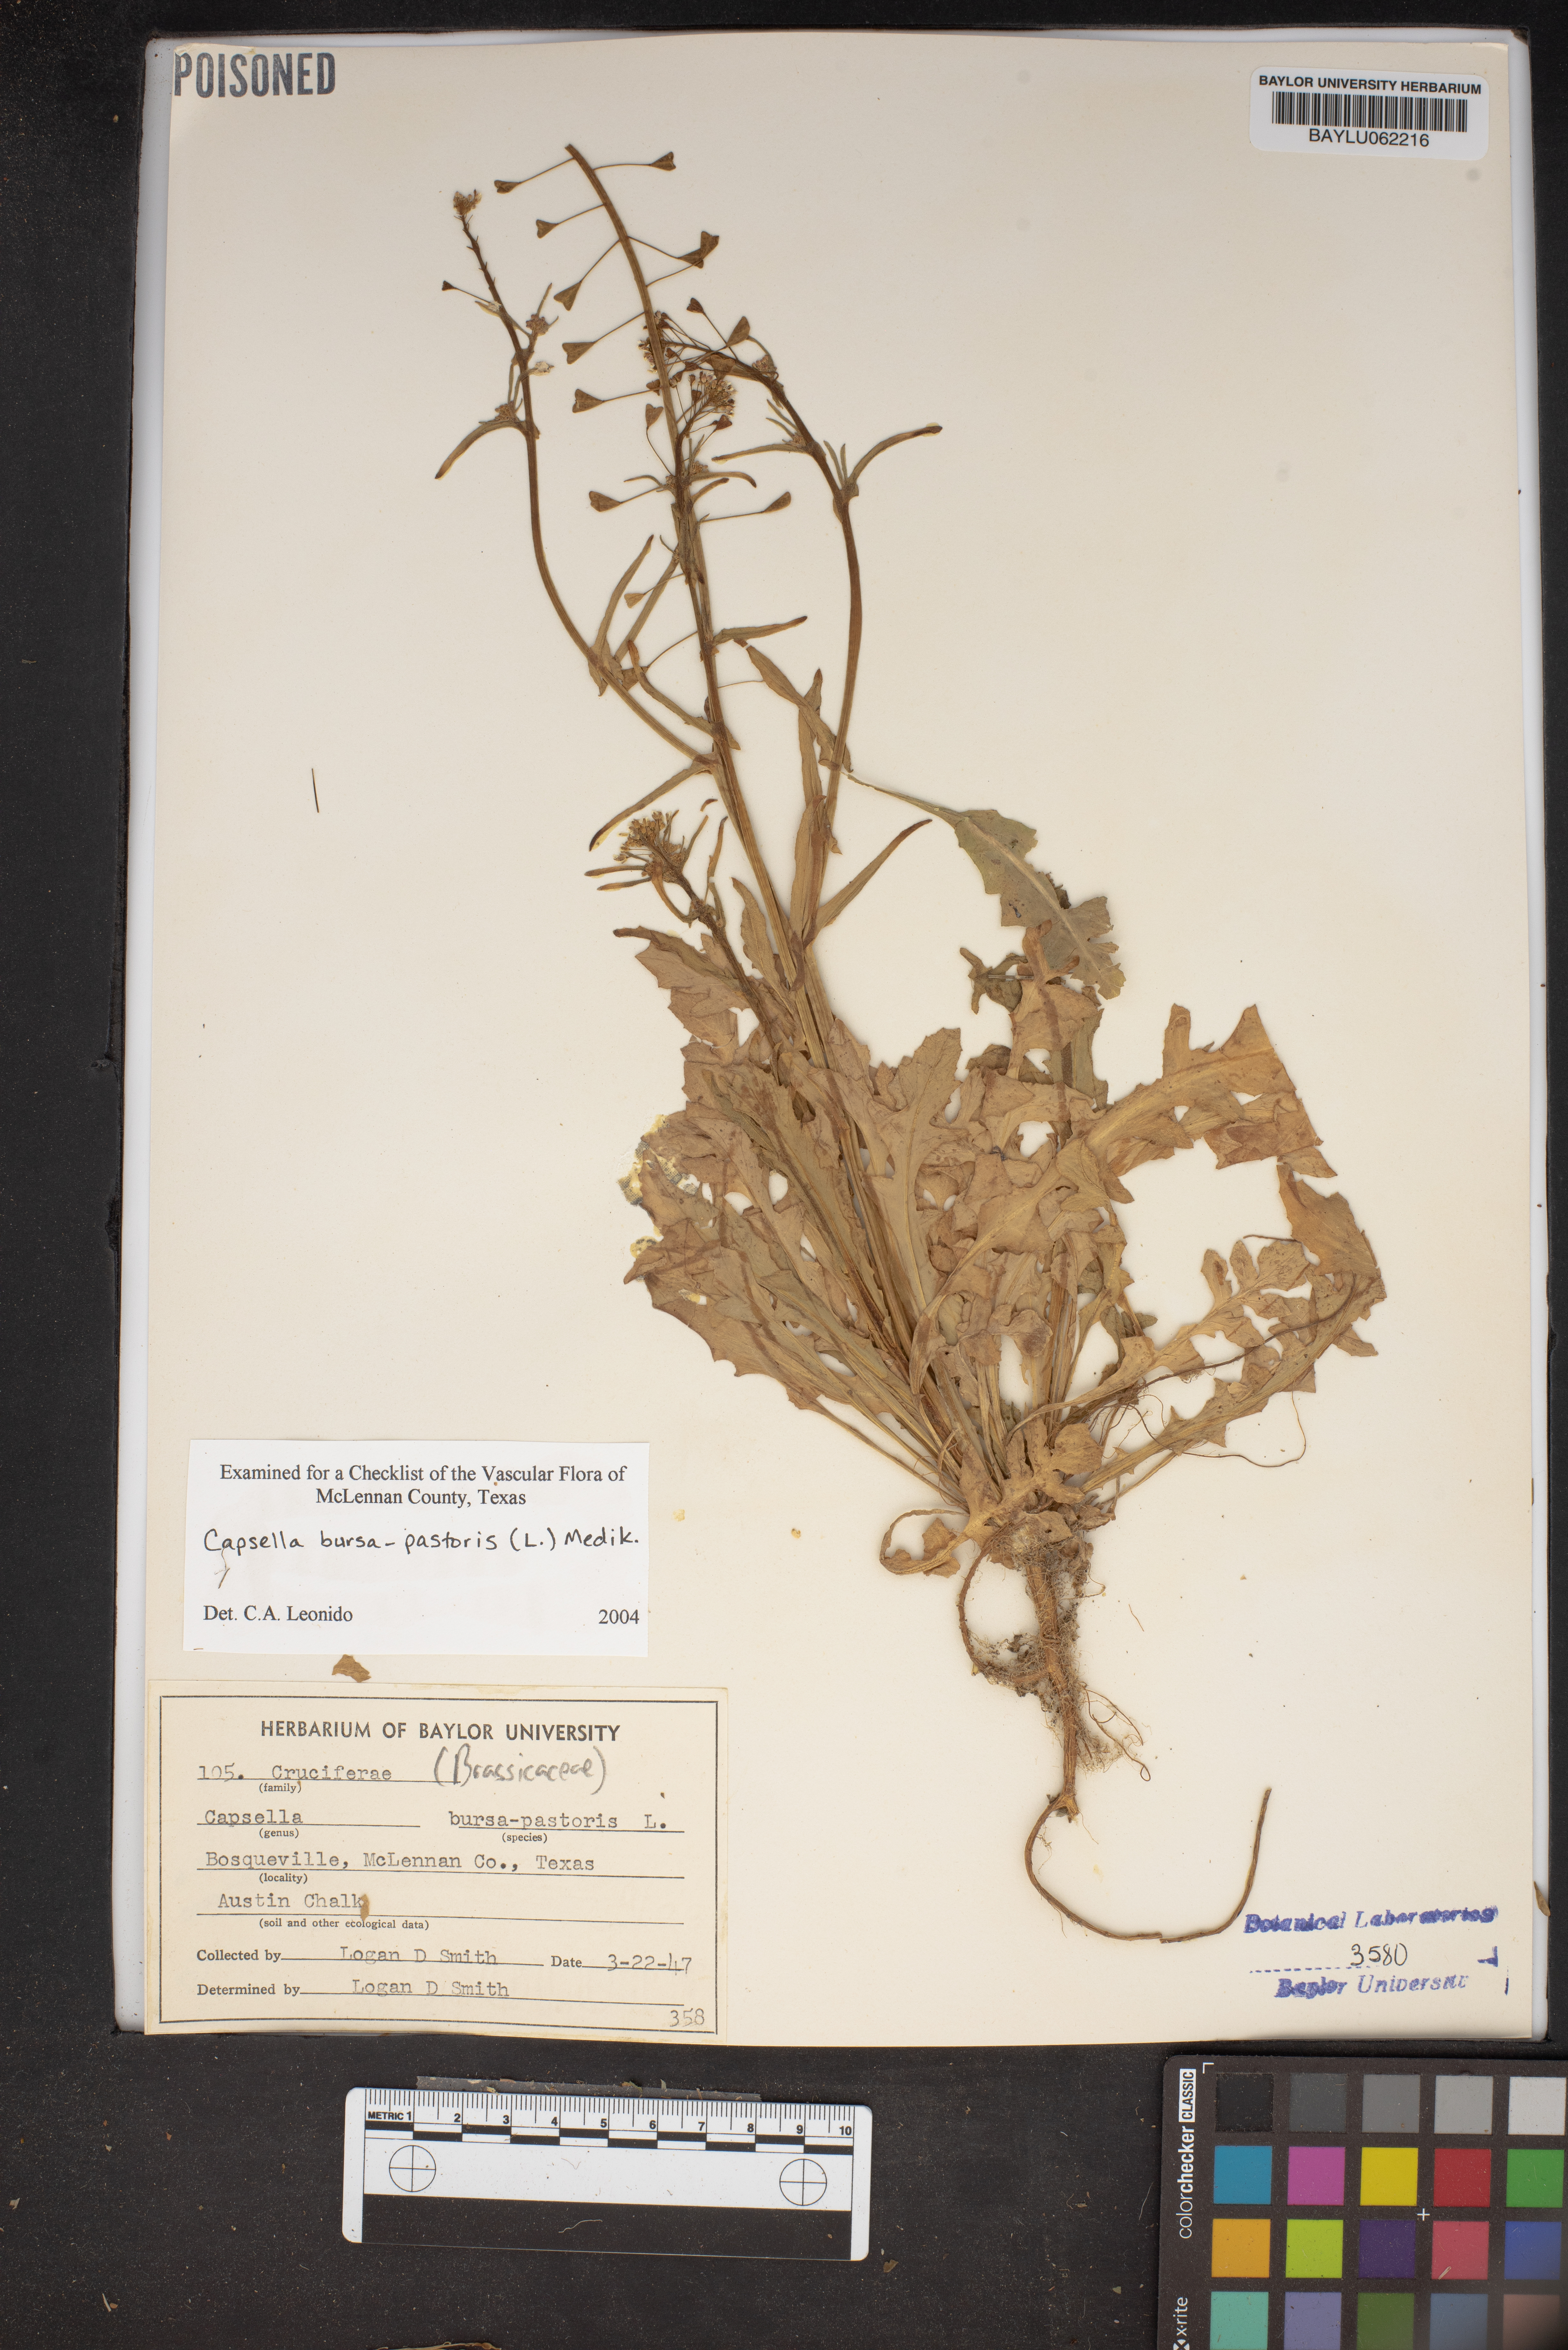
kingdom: Plantae
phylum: Tracheophyta
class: Magnoliopsida
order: Brassicales
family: Brassicaceae
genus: Capsella
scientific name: Capsella bursa-pastoris
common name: Shepherd's purse
